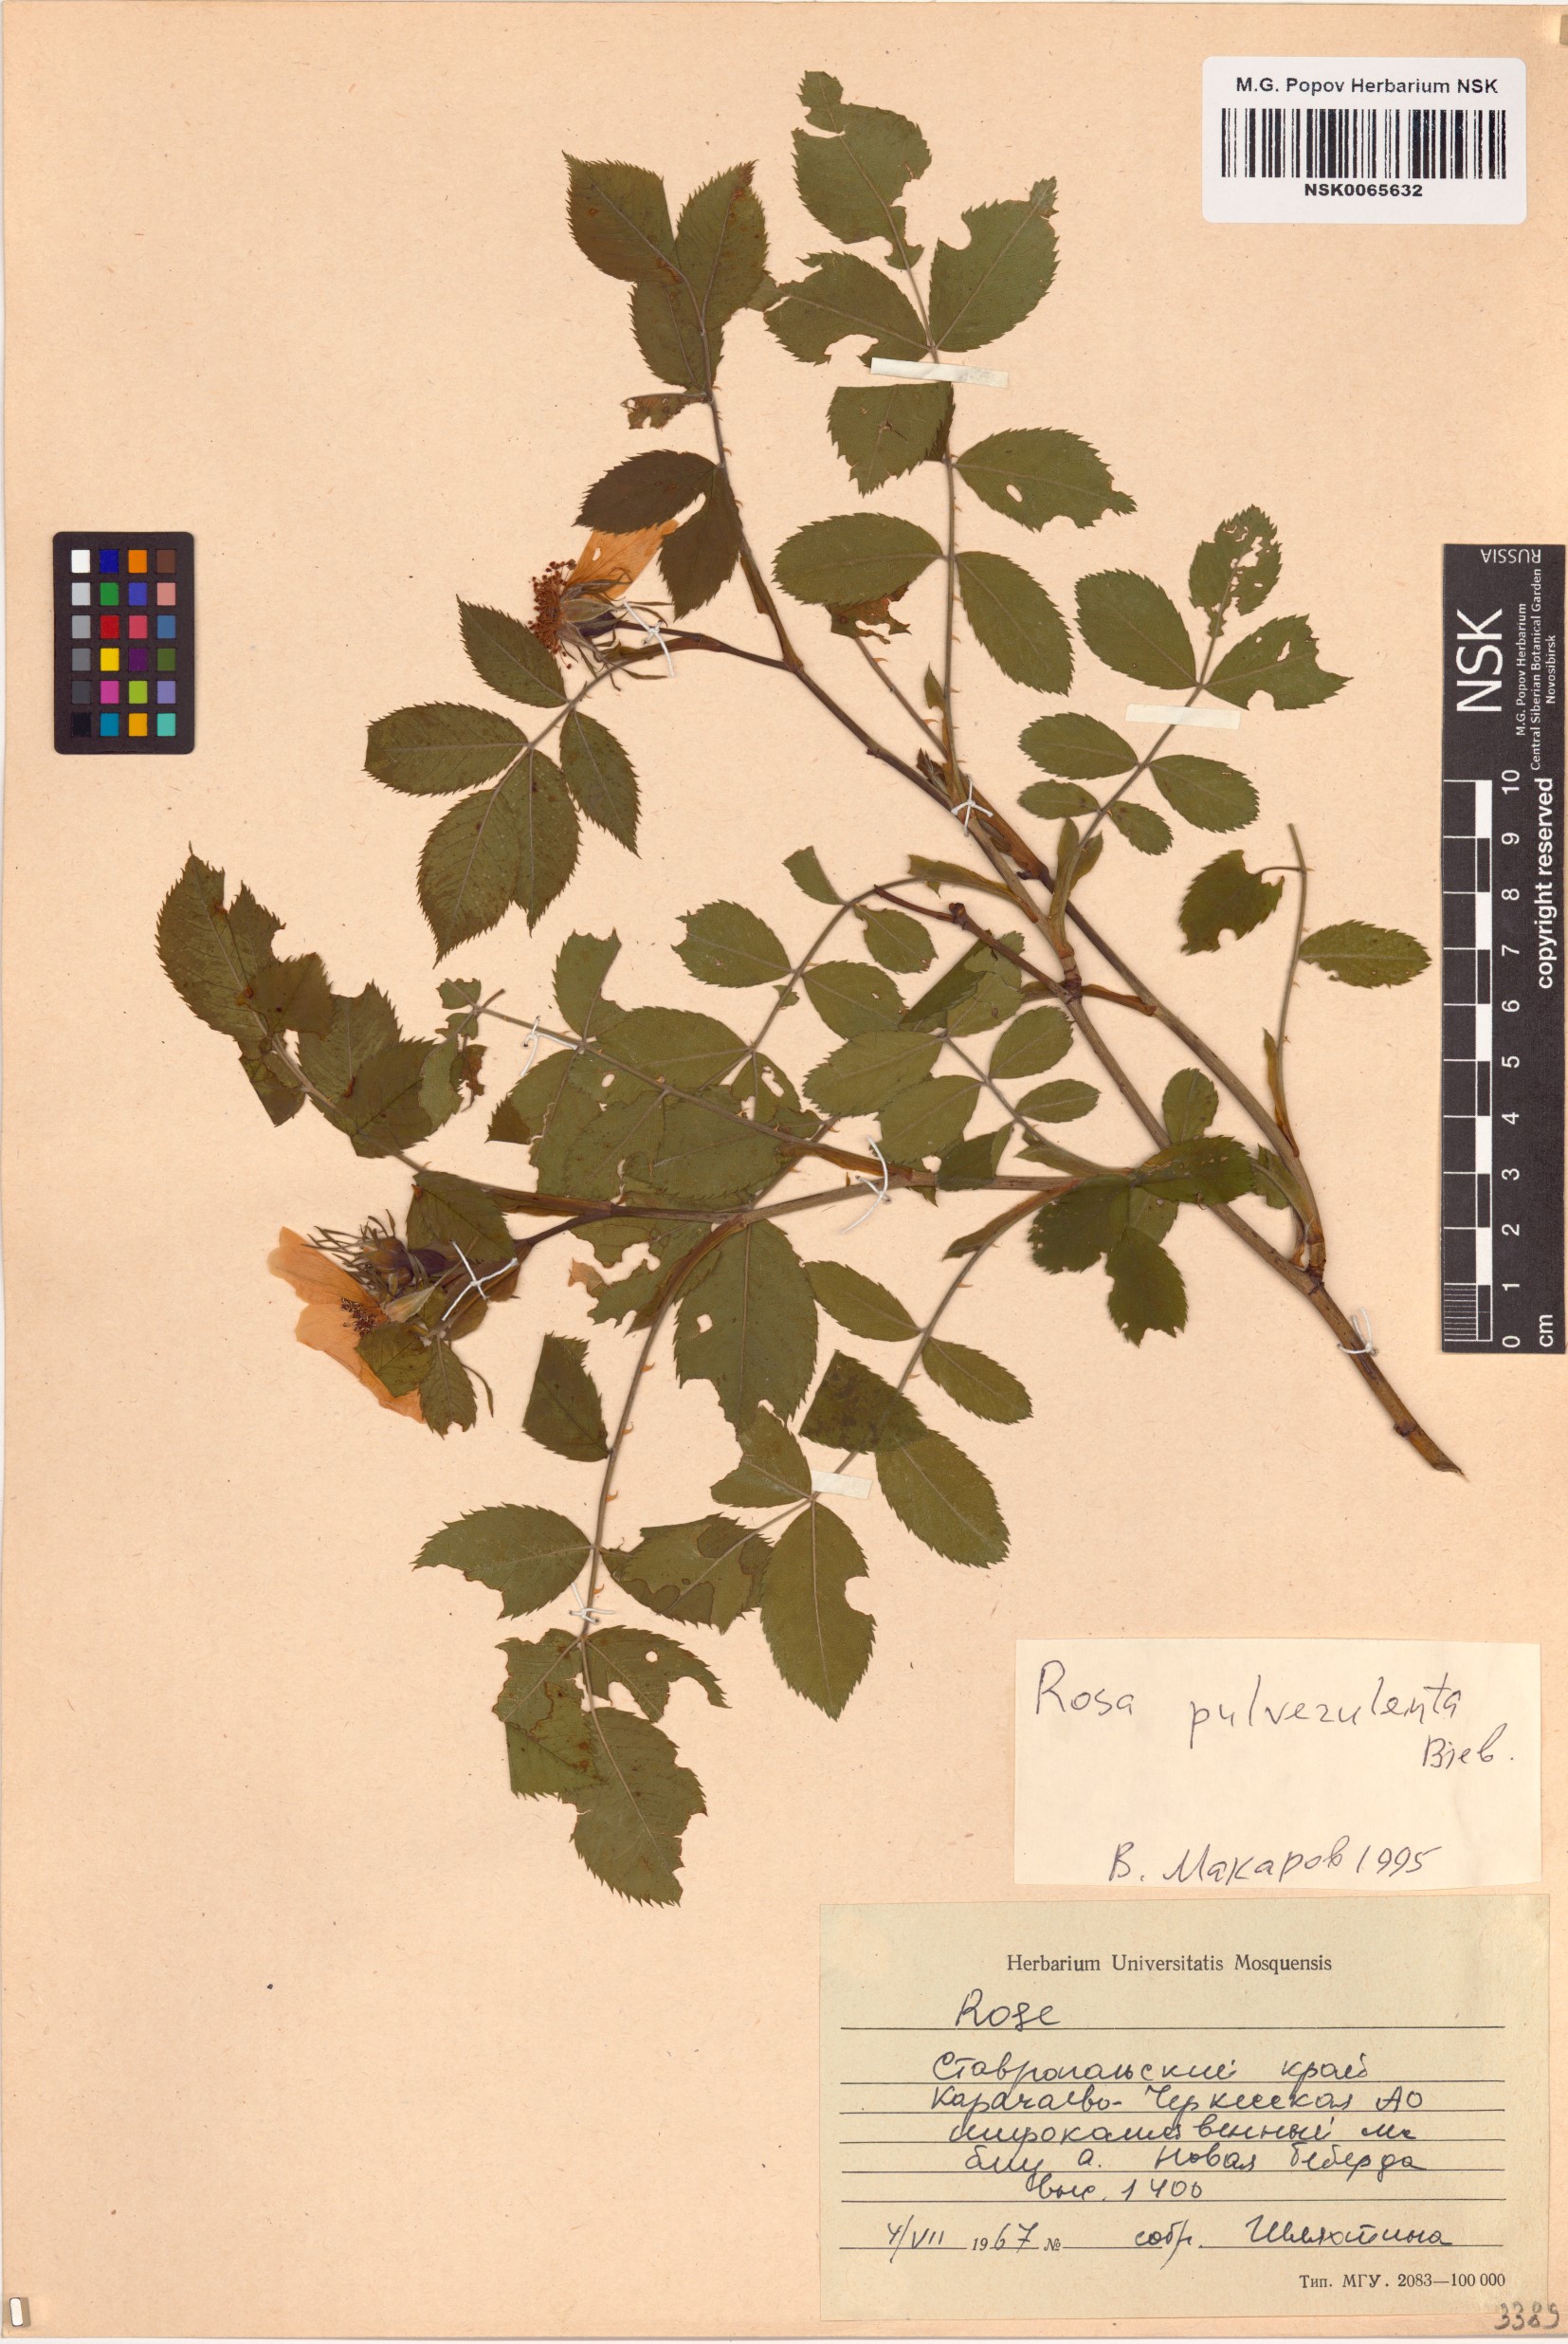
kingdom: Plantae
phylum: Tracheophyta
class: Magnoliopsida
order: Rosales
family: Rosaceae
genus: Rosa
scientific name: Rosa pulverulenta
